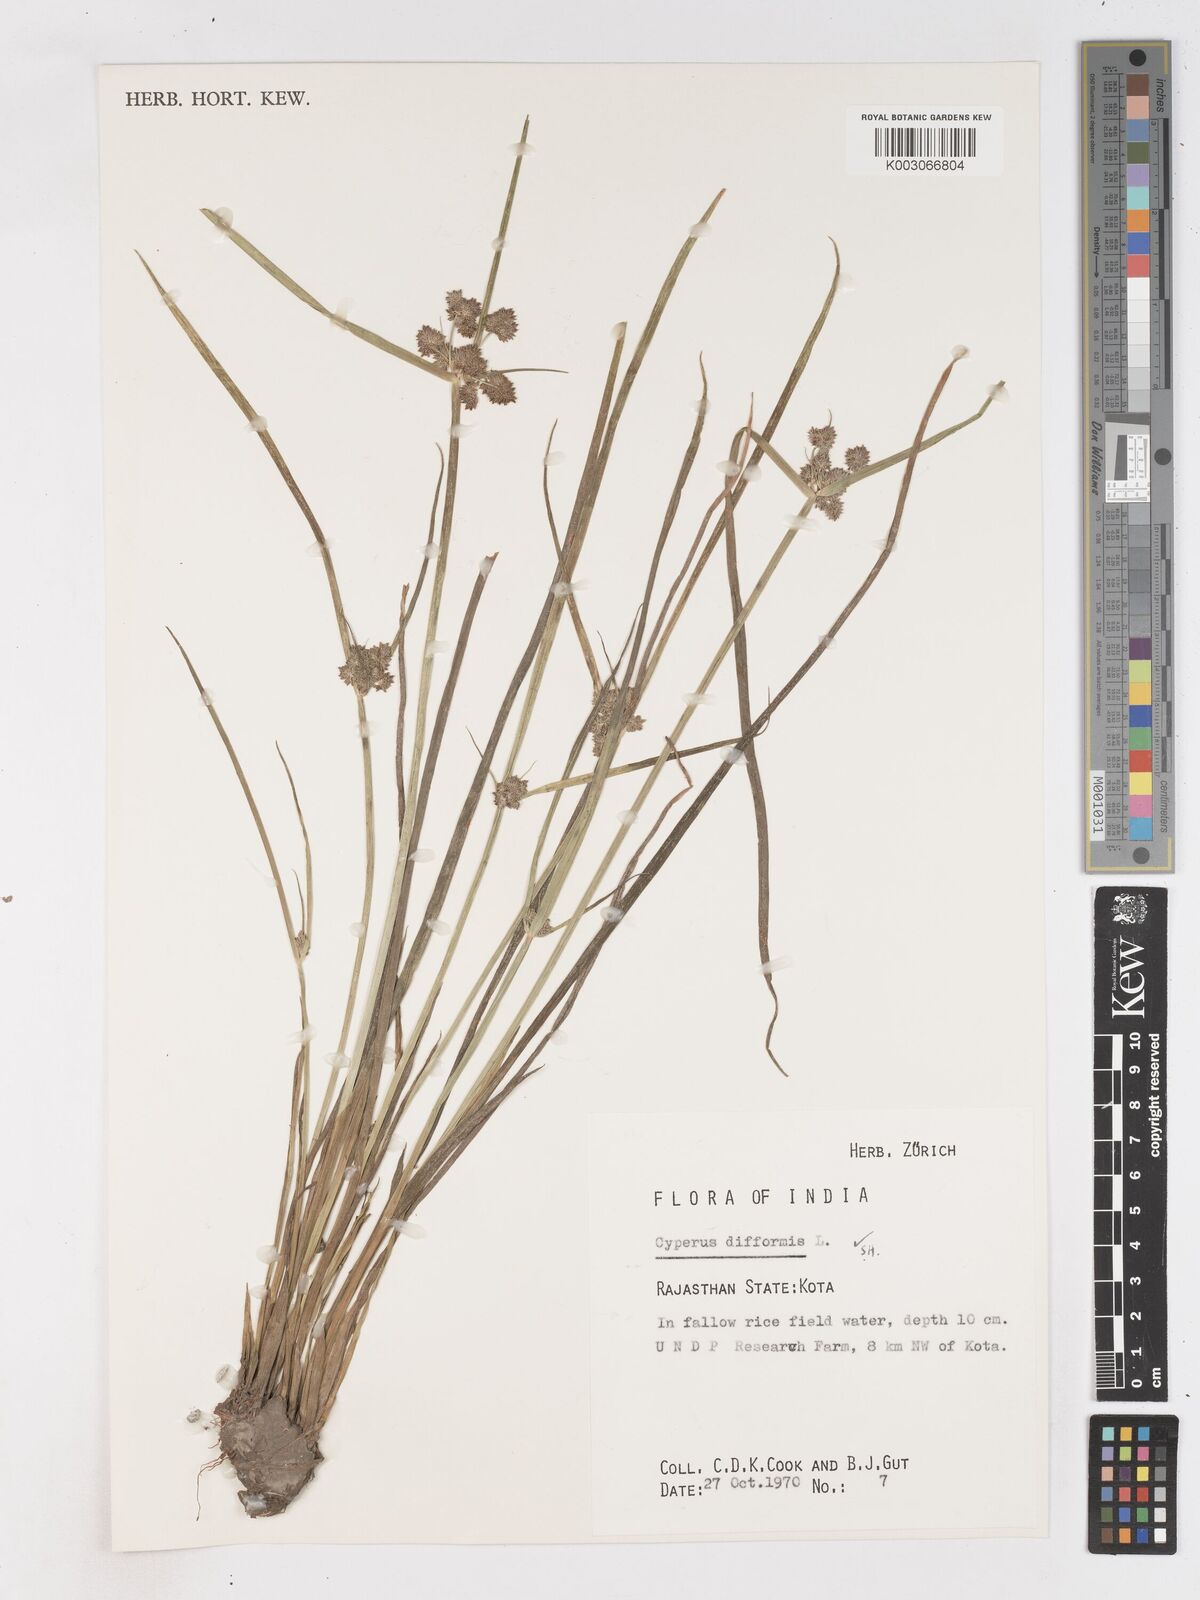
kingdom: Plantae
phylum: Tracheophyta
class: Liliopsida
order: Poales
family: Cyperaceae
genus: Cyperus
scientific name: Cyperus difformis
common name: Variable flatsedge
